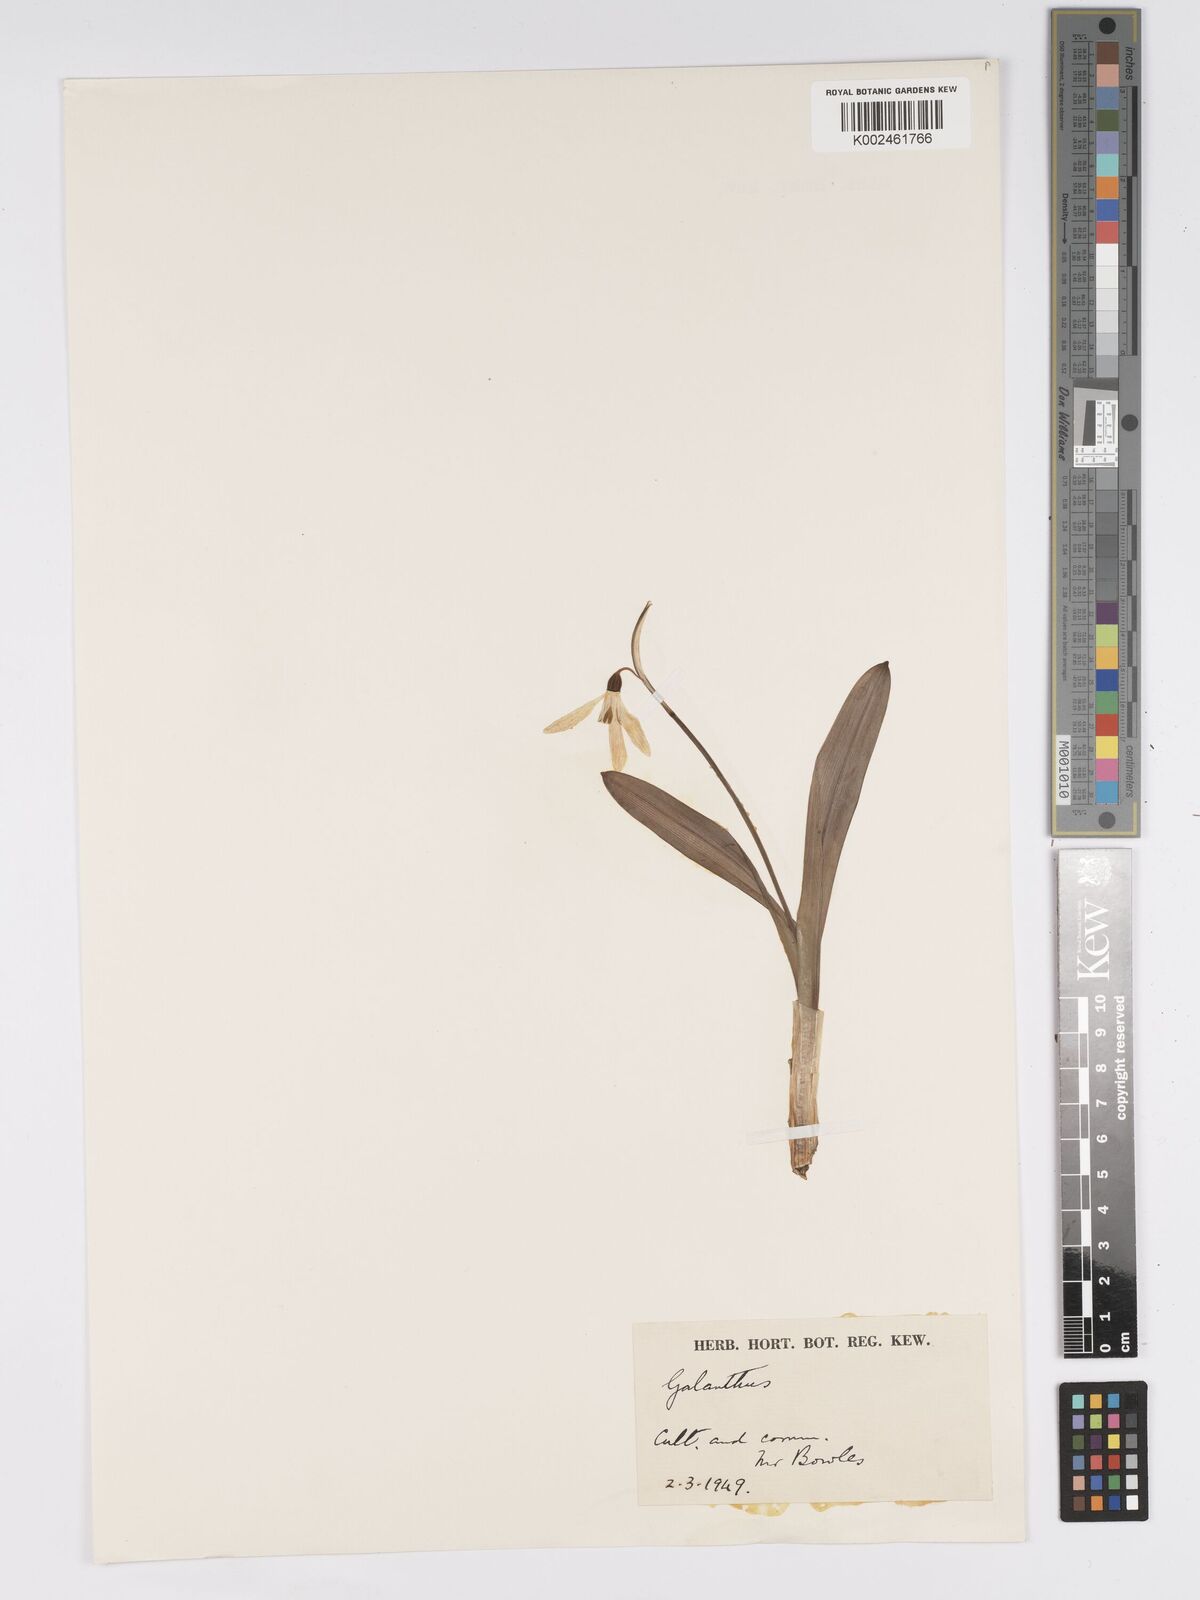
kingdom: Plantae
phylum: Tracheophyta
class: Liliopsida
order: Asparagales
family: Amaryllidaceae
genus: Galanthus
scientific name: Galanthus allenii
